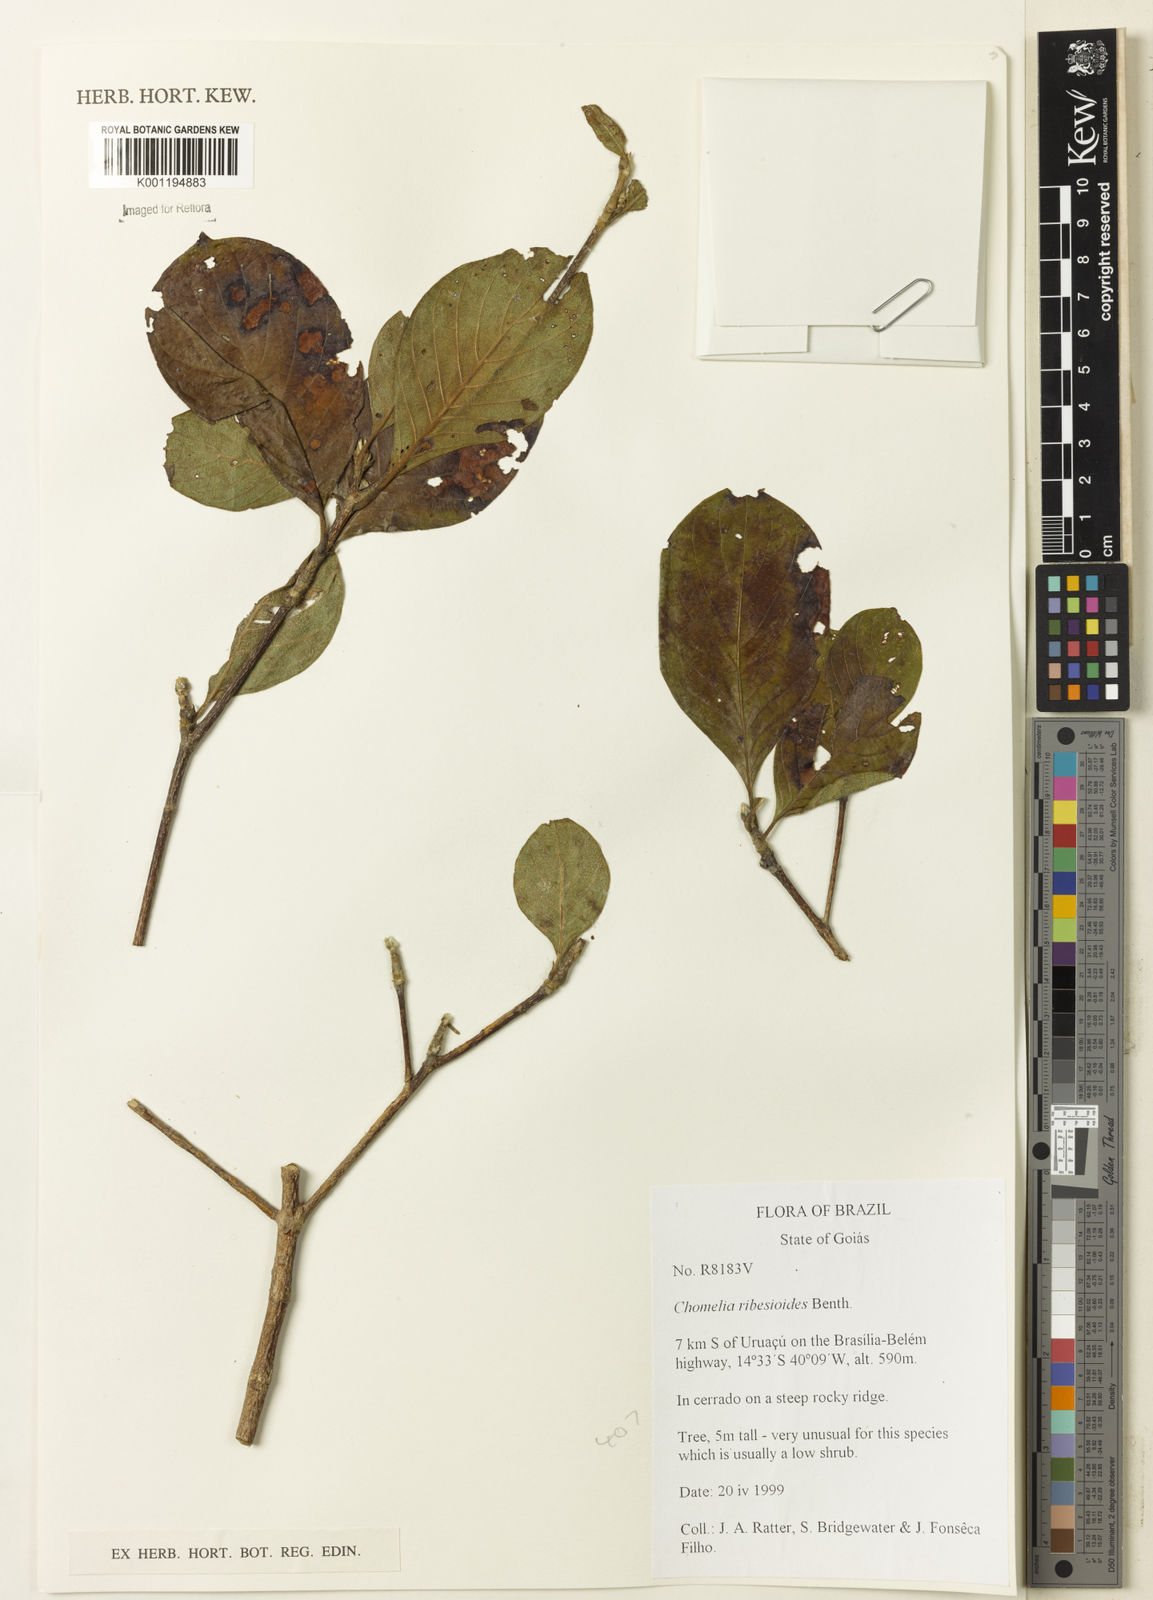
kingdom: Plantae
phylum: Tracheophyta
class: Magnoliopsida
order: Gentianales
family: Rubiaceae
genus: Chomelia
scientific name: Chomelia ribesioides
